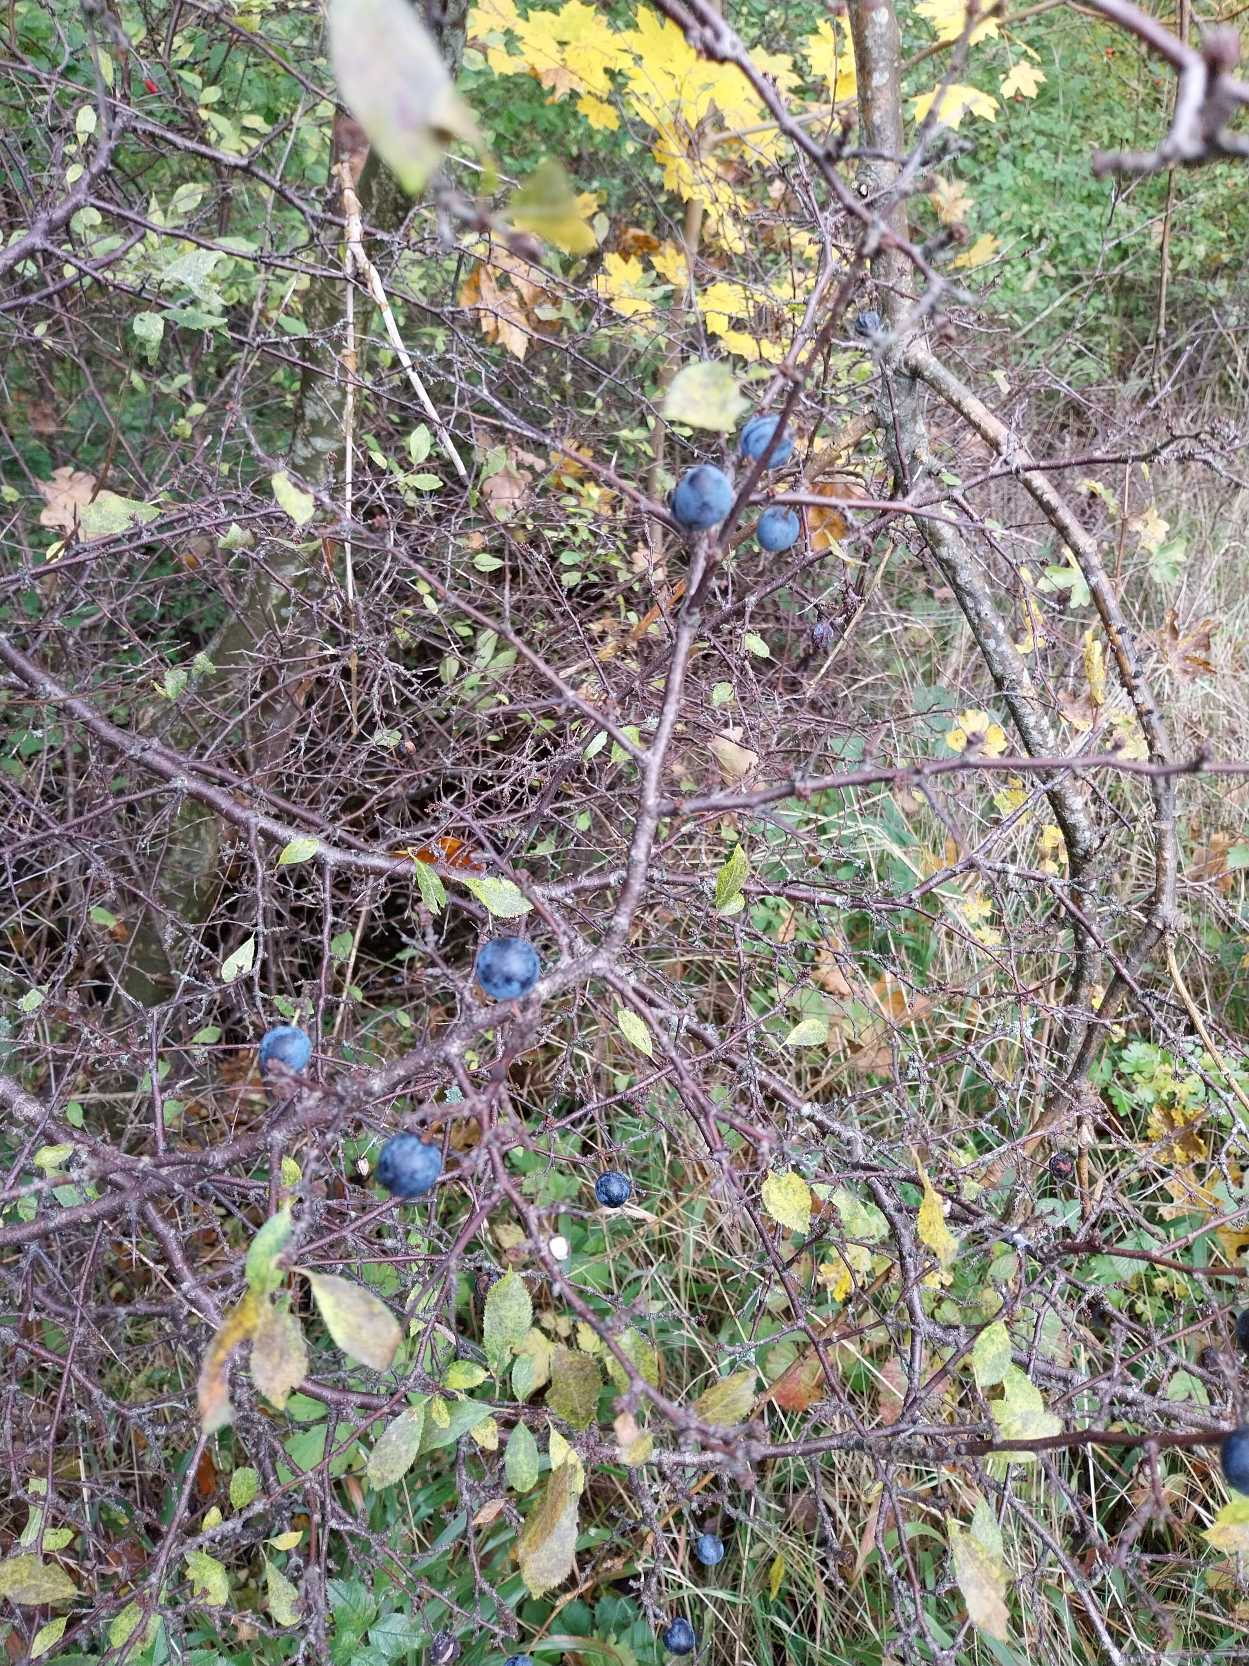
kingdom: Plantae
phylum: Tracheophyta
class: Magnoliopsida
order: Rosales
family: Rosaceae
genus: Prunus
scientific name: Prunus spinosa
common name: Slåen
